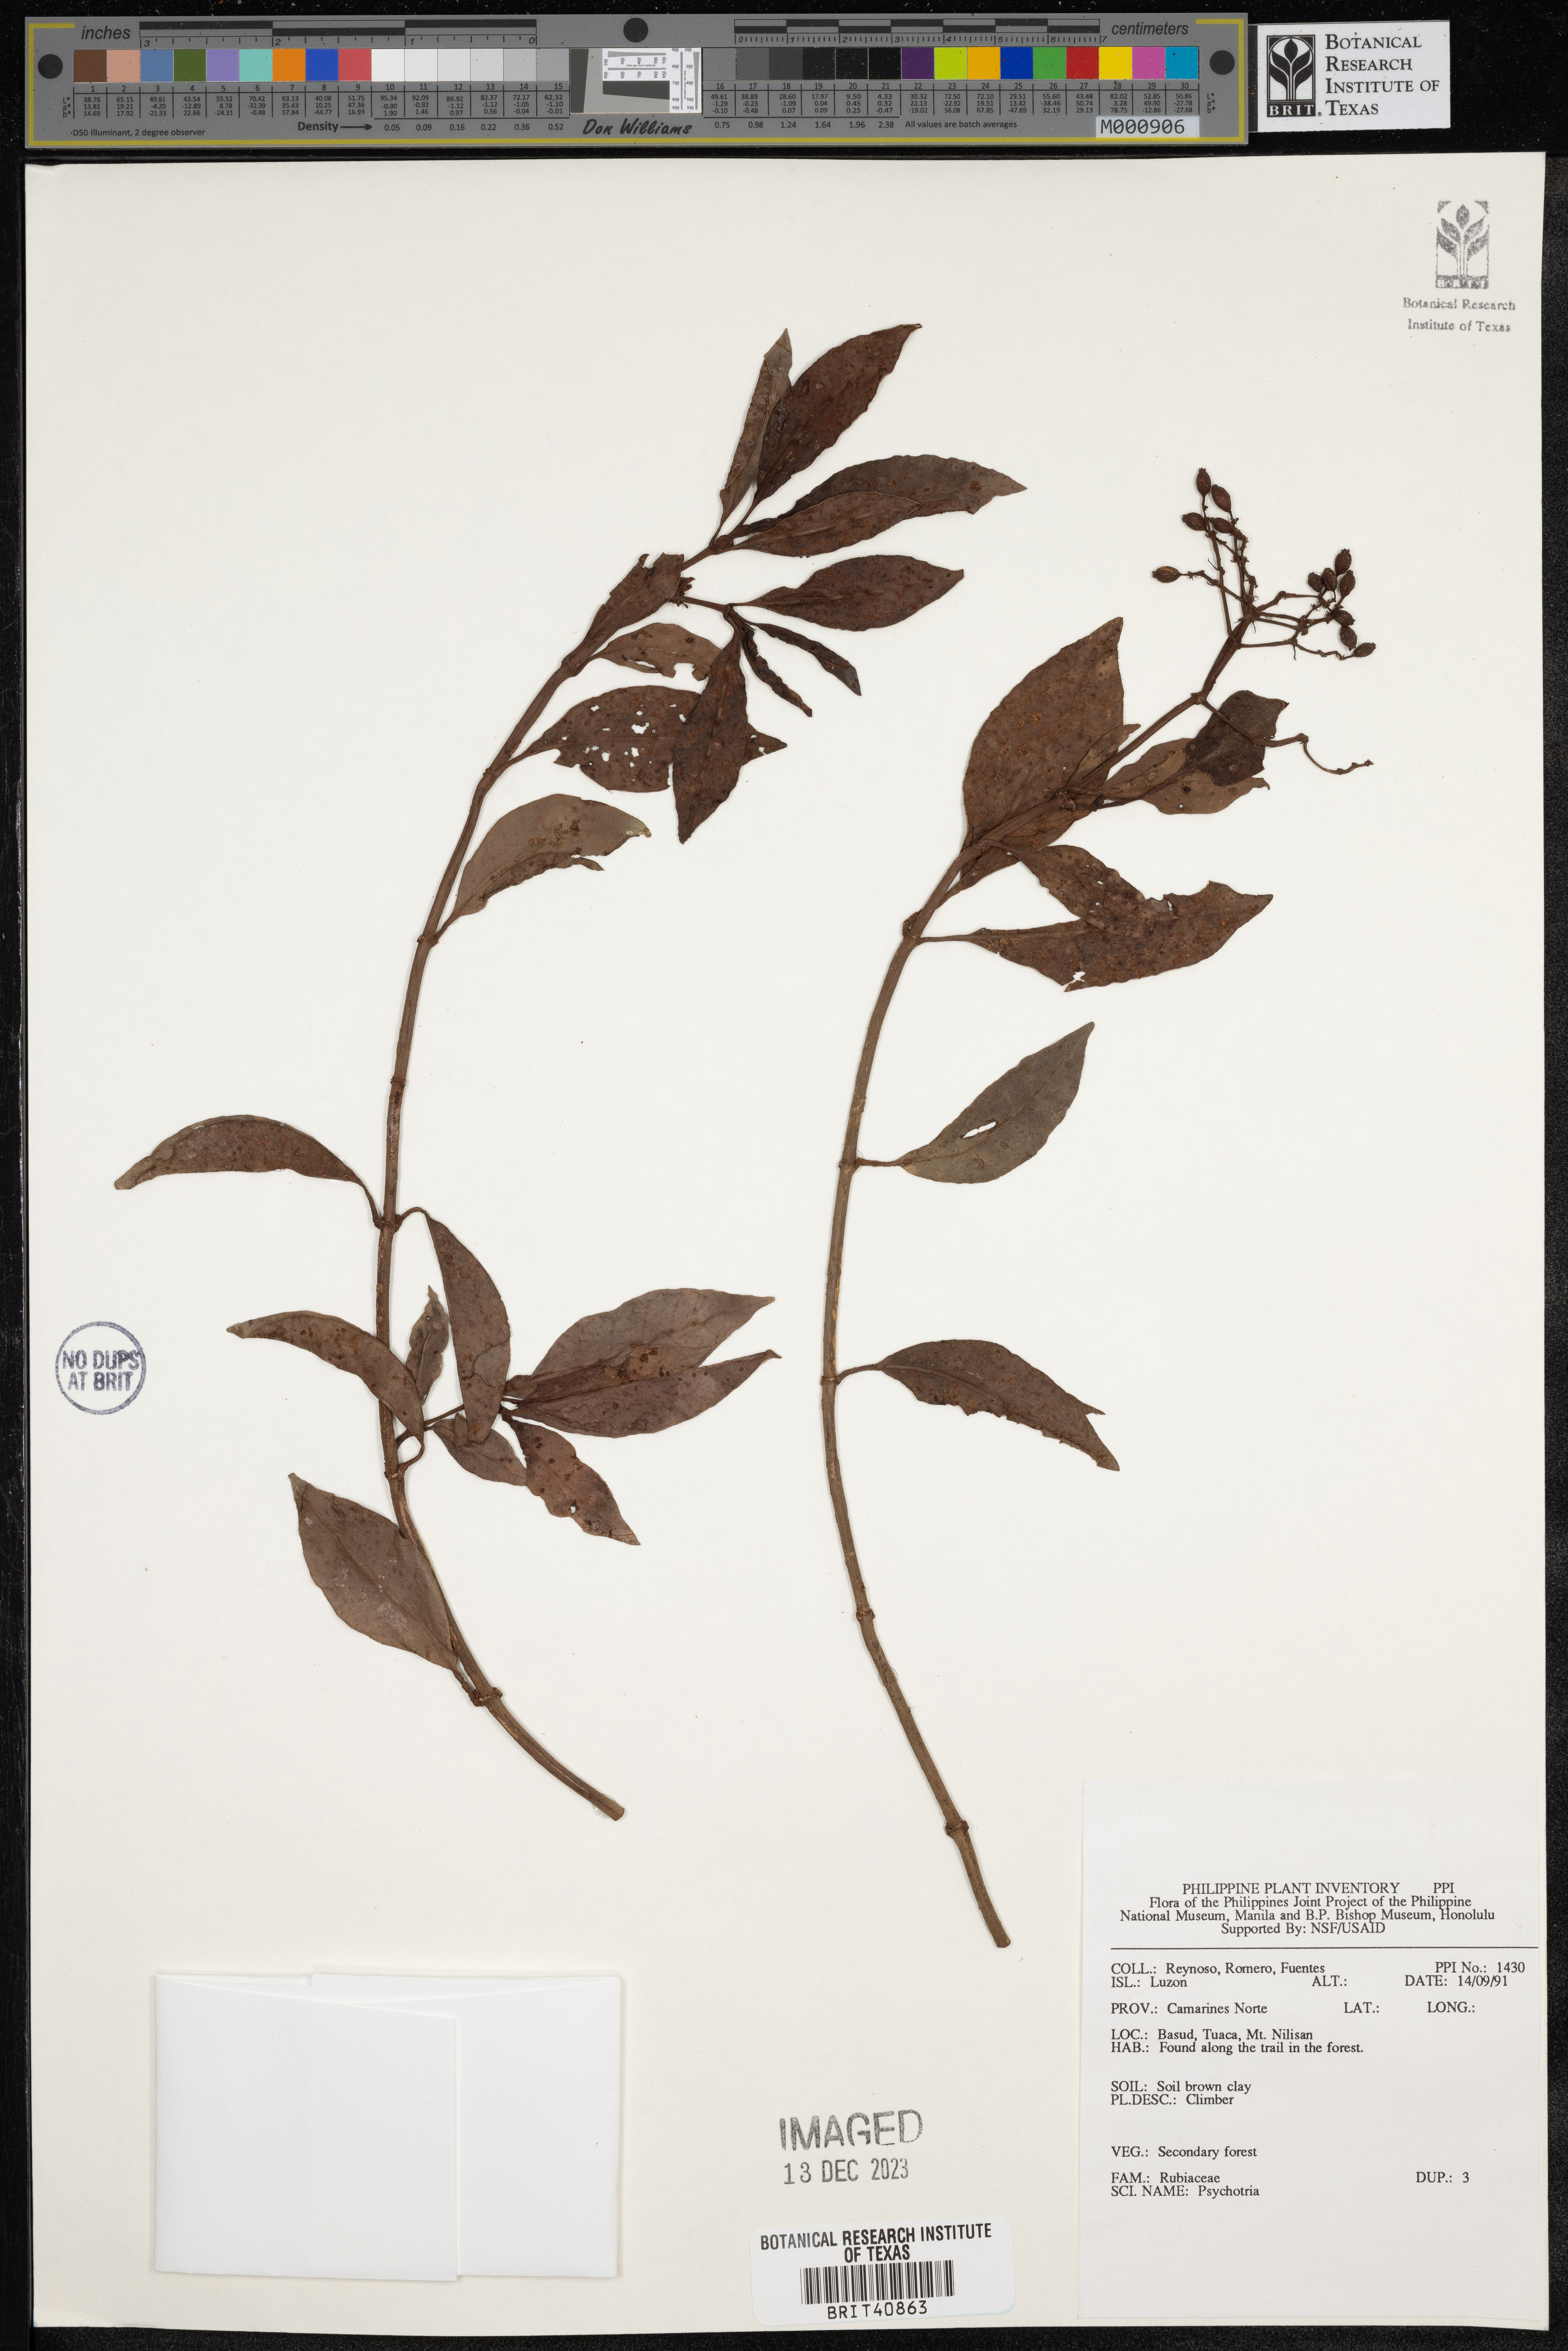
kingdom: Plantae
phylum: Tracheophyta
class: Magnoliopsida
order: Gentianales
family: Rubiaceae
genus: Psychotria
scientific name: Psychotria
